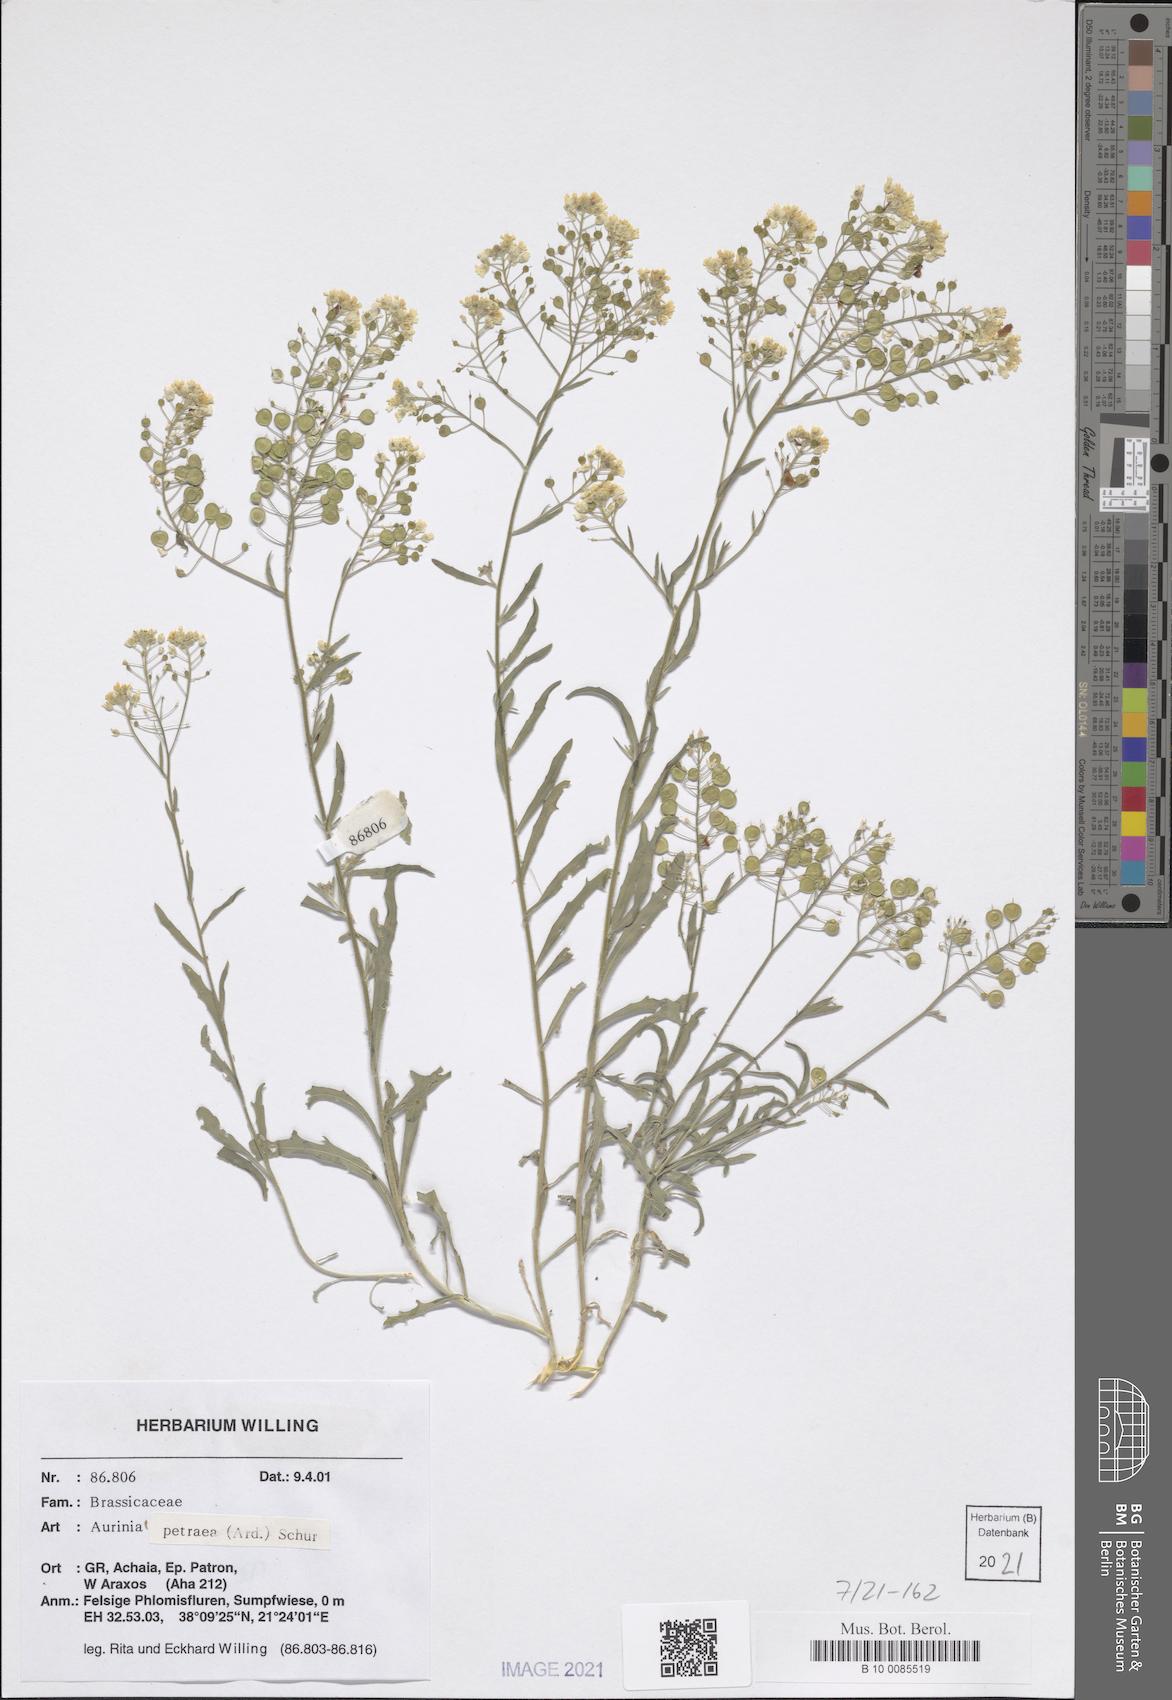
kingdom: Plantae
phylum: Tracheophyta
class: Magnoliopsida
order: Brassicales
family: Brassicaceae
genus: Aurinia
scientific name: Aurinia petraea
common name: Goldentuft
